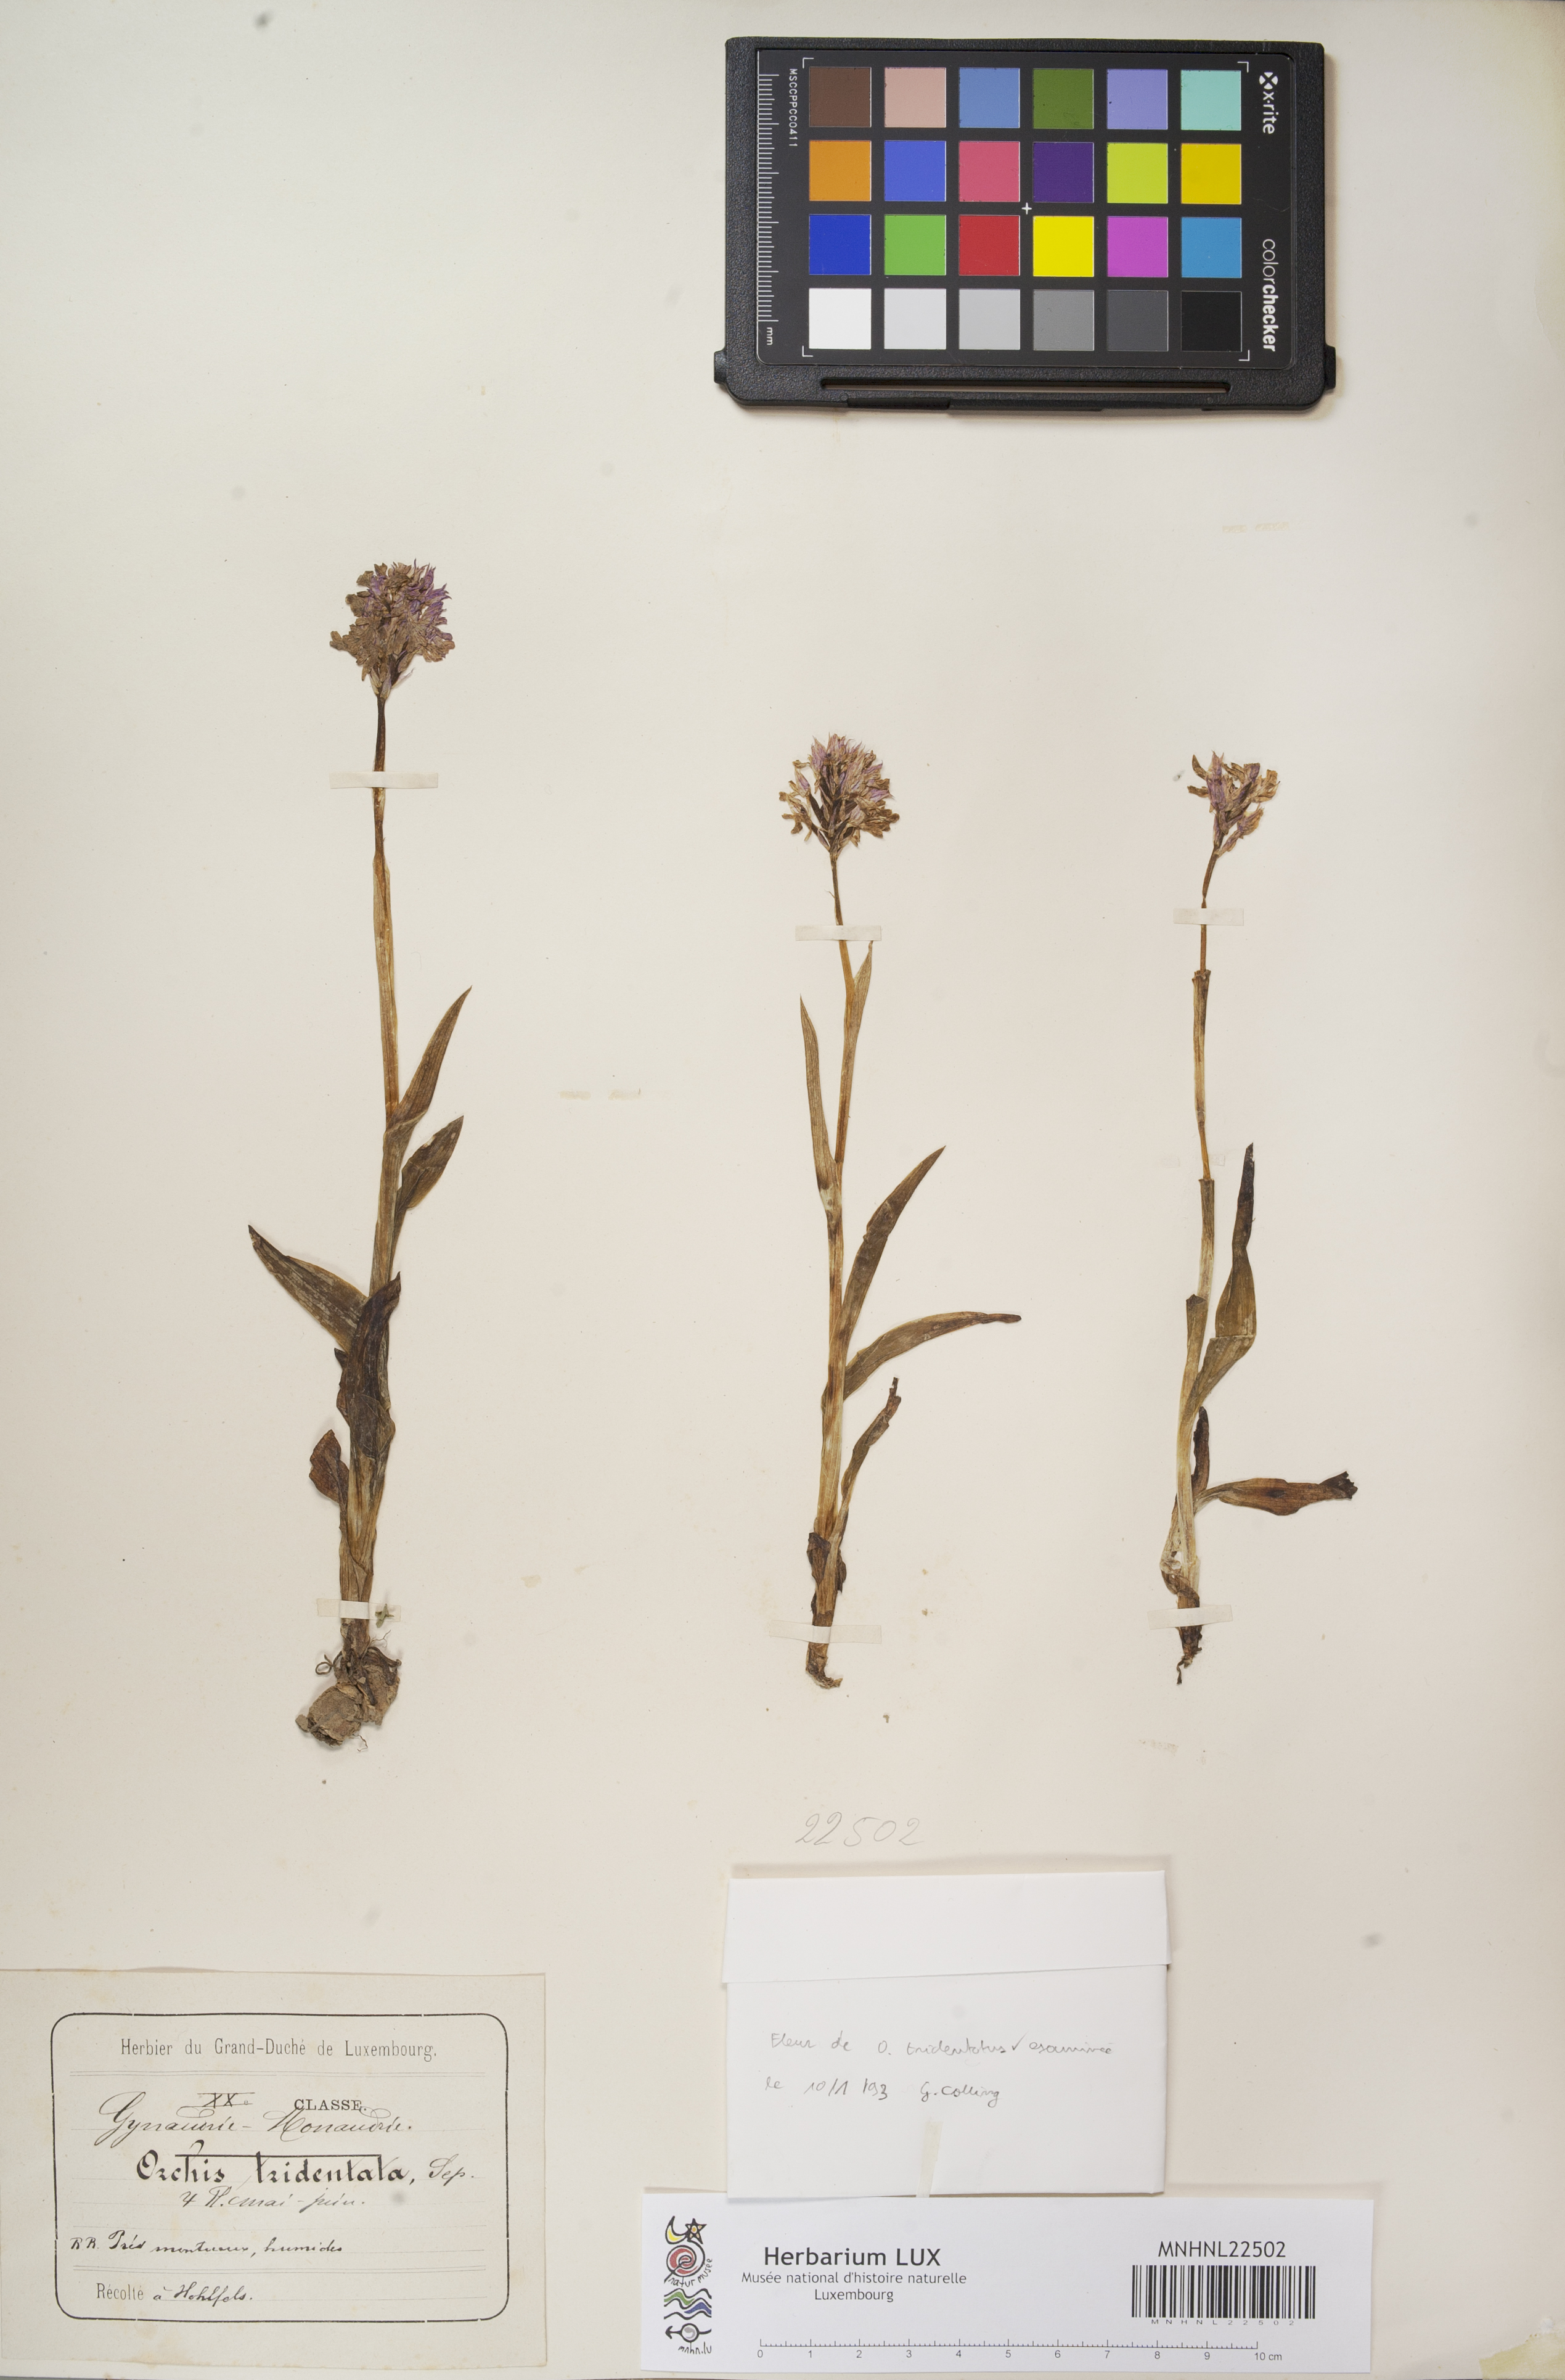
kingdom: Plantae
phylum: Tracheophyta
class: Liliopsida
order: Asparagales
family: Orchidaceae
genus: Neotinea
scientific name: Neotinea tridentata
